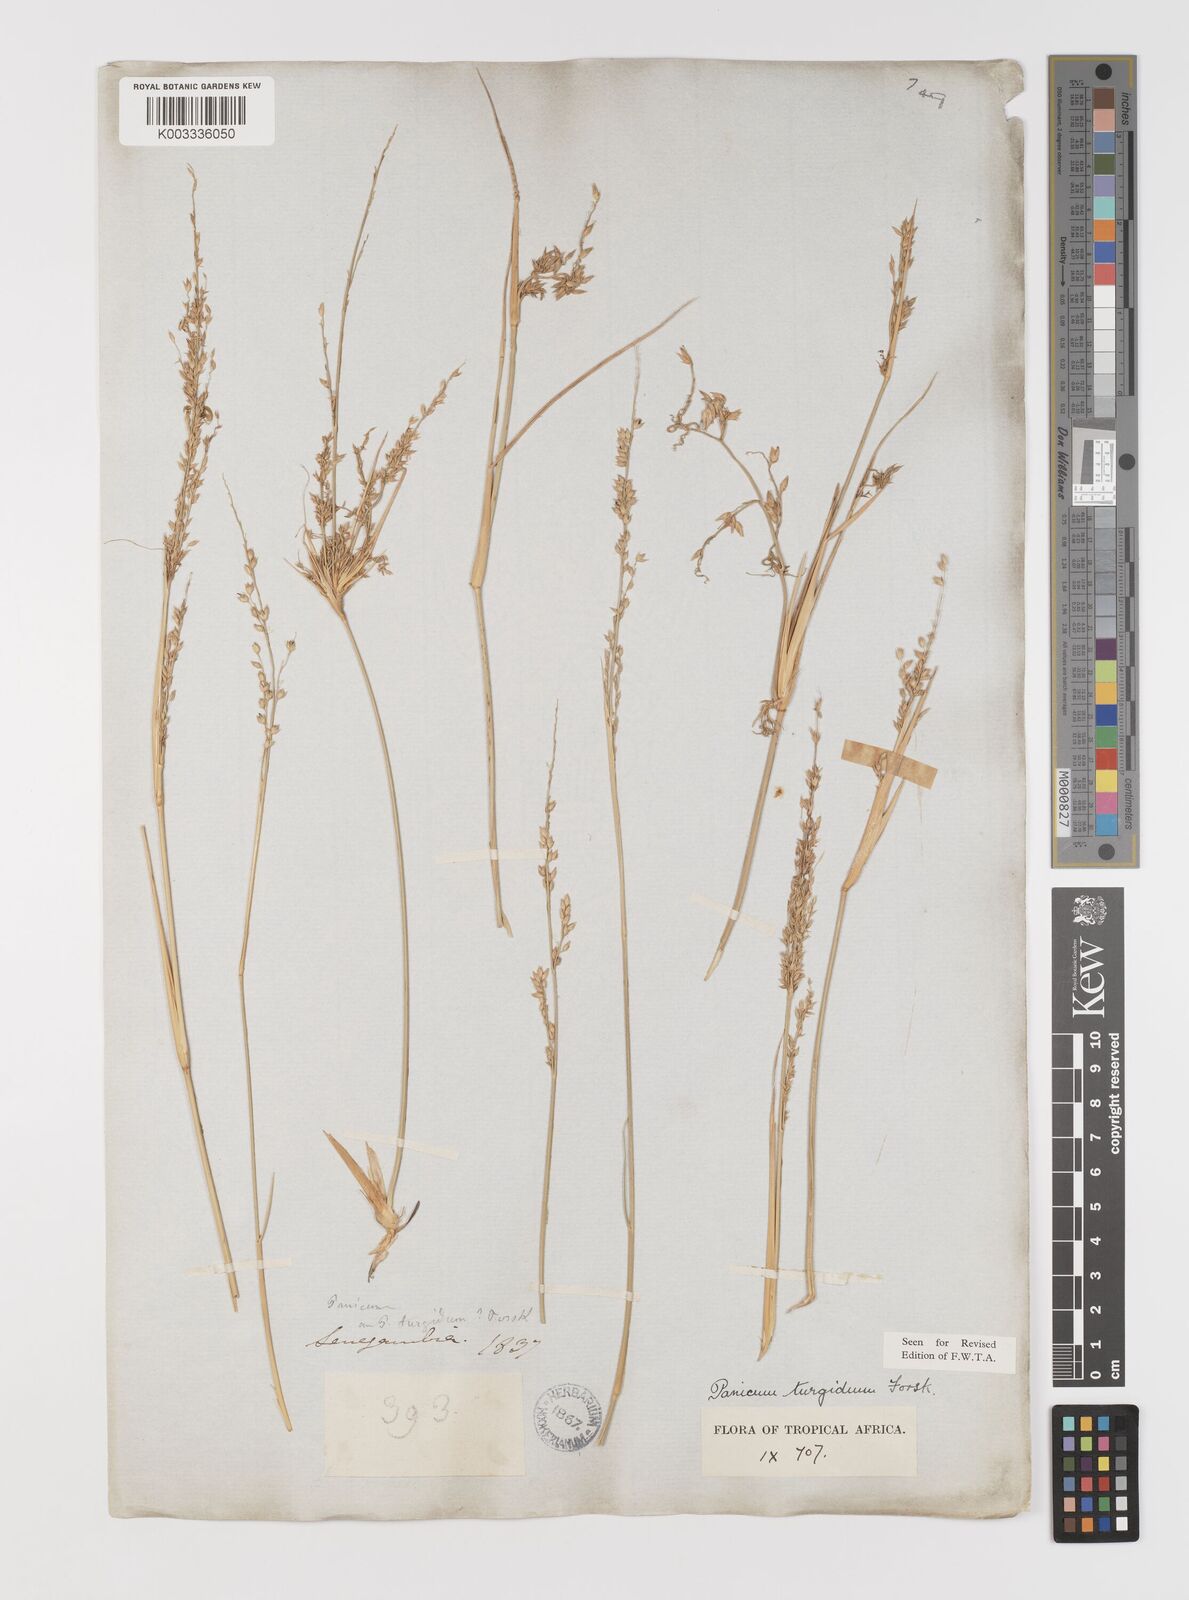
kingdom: Plantae
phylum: Tracheophyta
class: Liliopsida
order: Poales
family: Poaceae
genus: Panicum
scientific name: Panicum turgidum
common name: Desert grass
